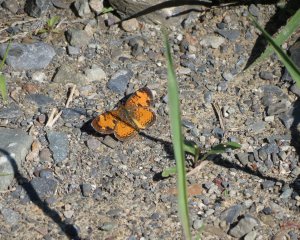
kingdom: Animalia
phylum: Arthropoda
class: Insecta
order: Lepidoptera
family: Nymphalidae
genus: Phyciodes
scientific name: Phyciodes tharos
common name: Northern Crescent
